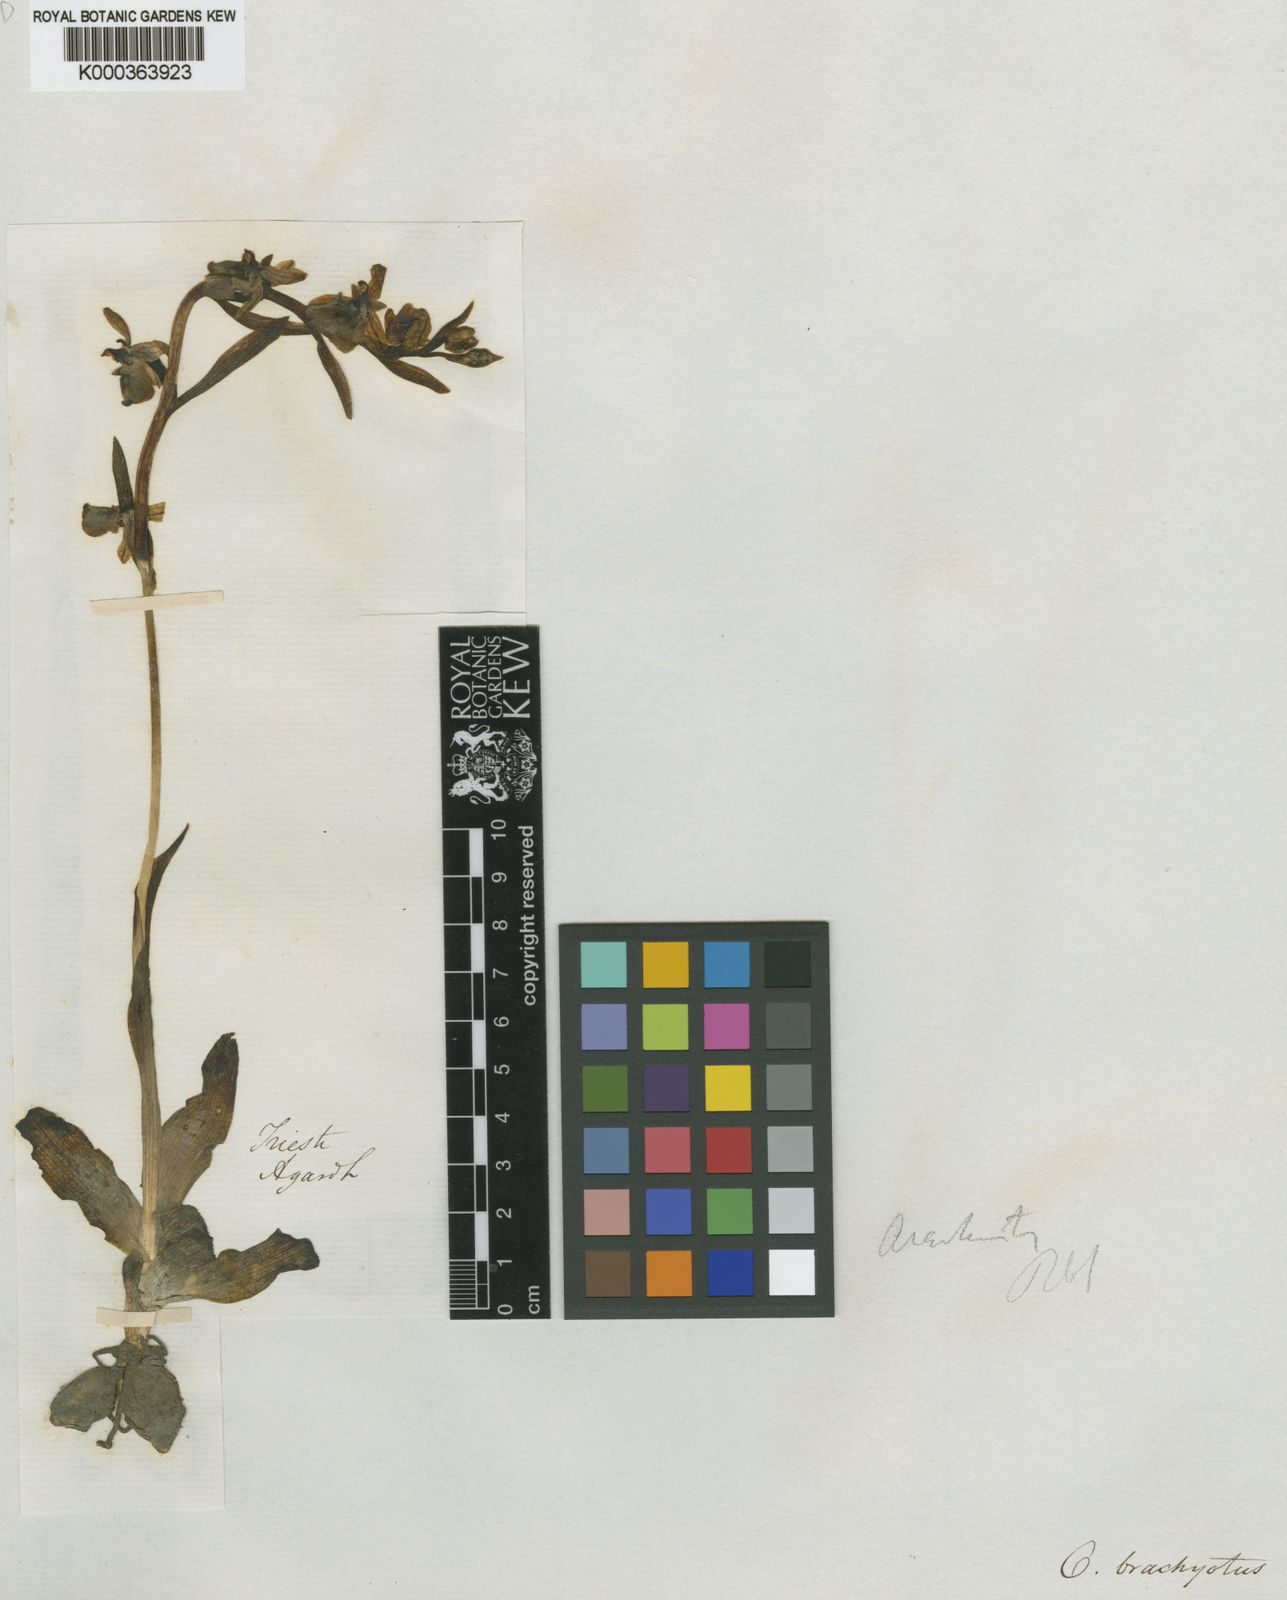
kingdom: Plantae
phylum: Tracheophyta
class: Liliopsida
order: Asparagales
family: Orchidaceae
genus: Ophrys
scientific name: Ophrys
